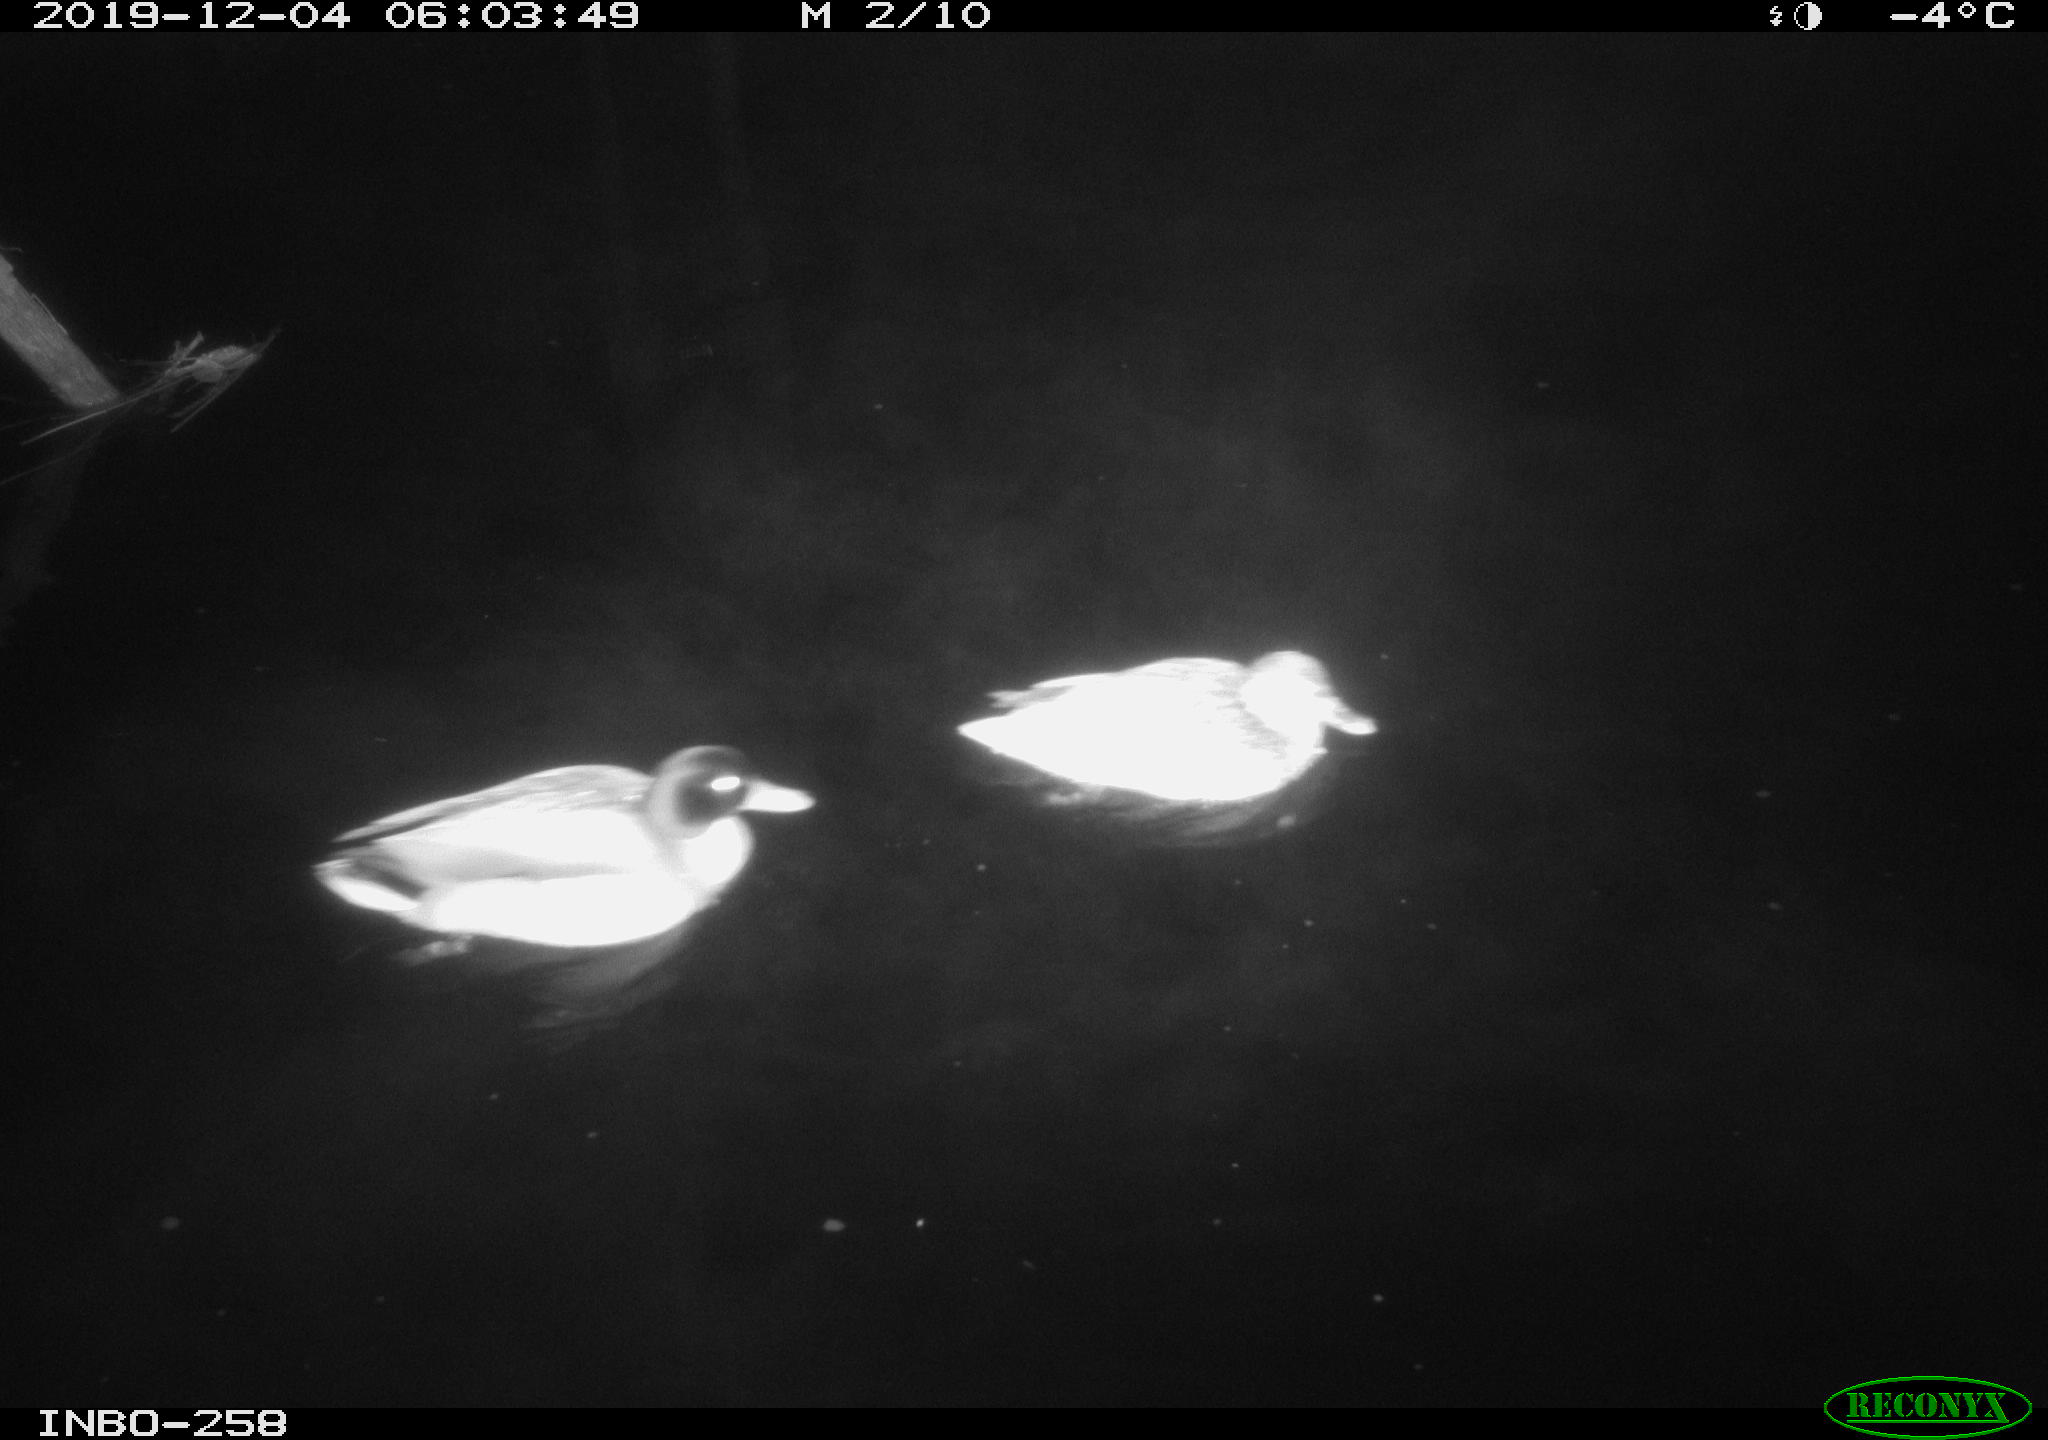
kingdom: Animalia
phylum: Chordata
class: Aves
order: Anseriformes
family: Anatidae
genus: Anas
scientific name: Anas platyrhynchos
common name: Mallard
